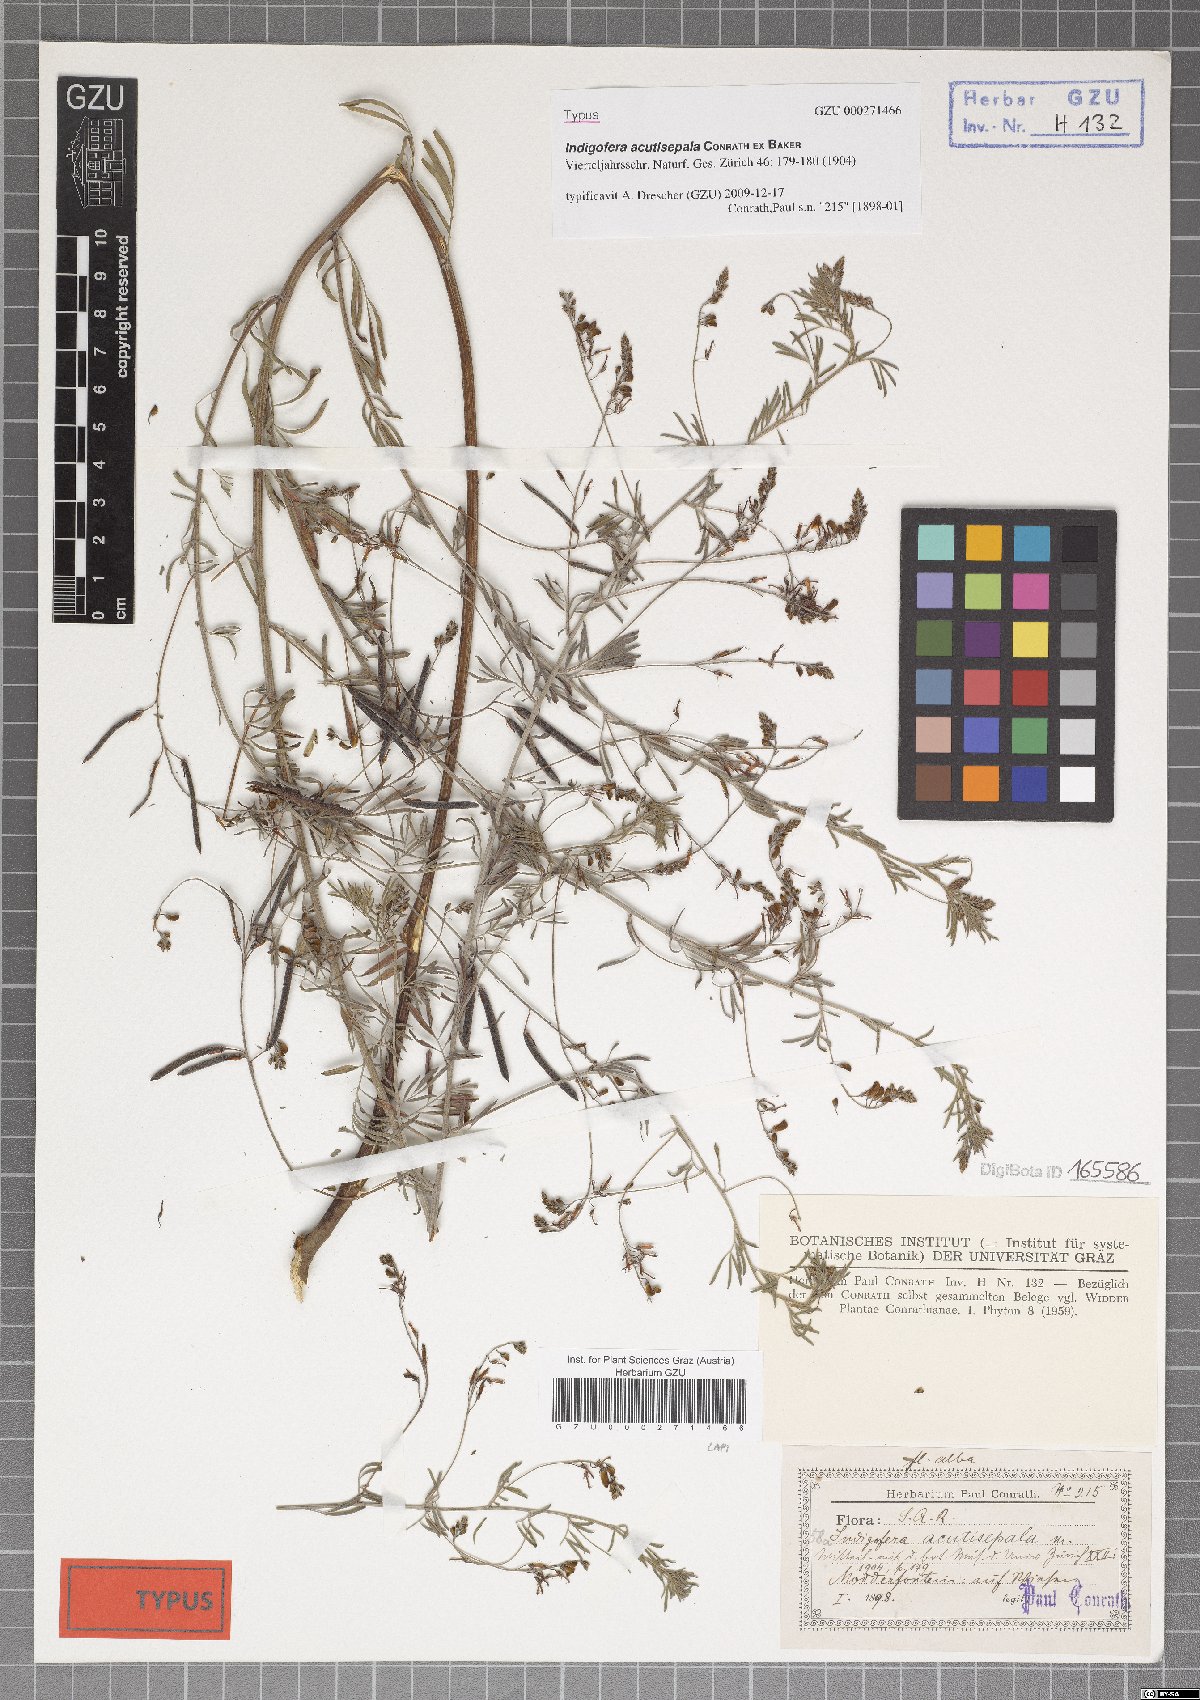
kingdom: Plantae
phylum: Tracheophyta
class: Magnoliopsida
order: Fabales
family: Fabaceae
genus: Indigofera
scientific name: Indigofera acutisepala
